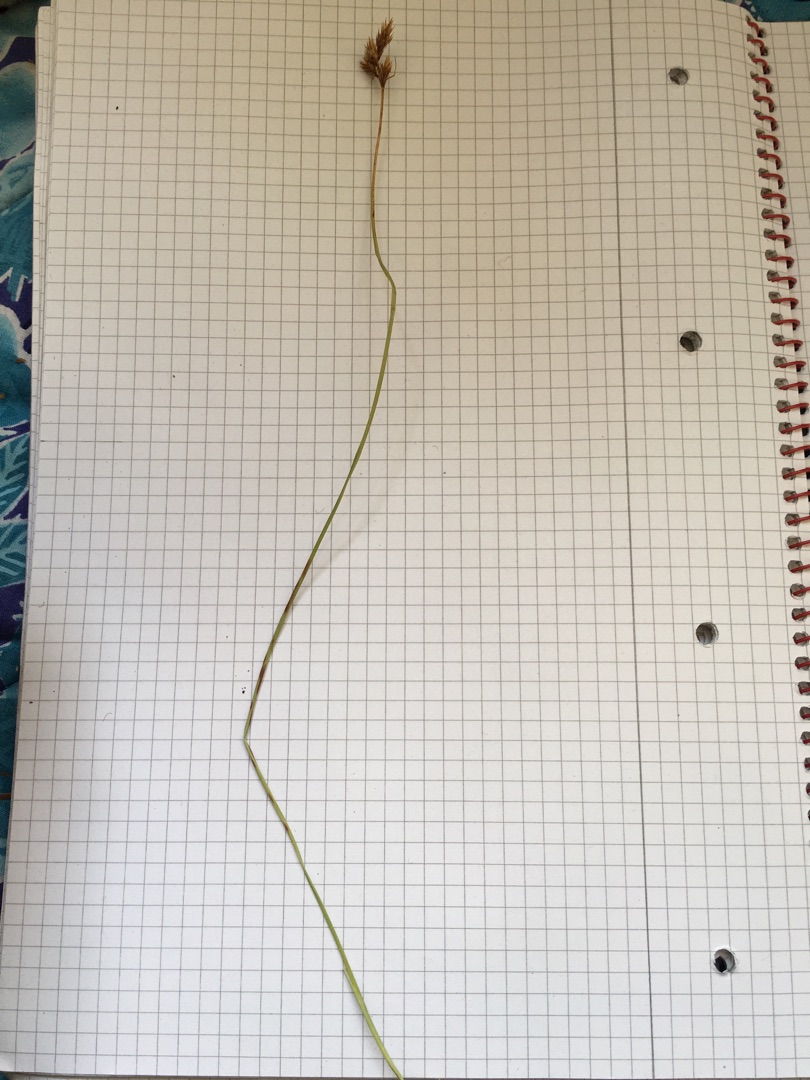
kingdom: Plantae
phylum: Tracheophyta
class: Liliopsida
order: Poales
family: Cyperaceae
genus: Carex
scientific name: Carex leporina
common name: Hare-star
